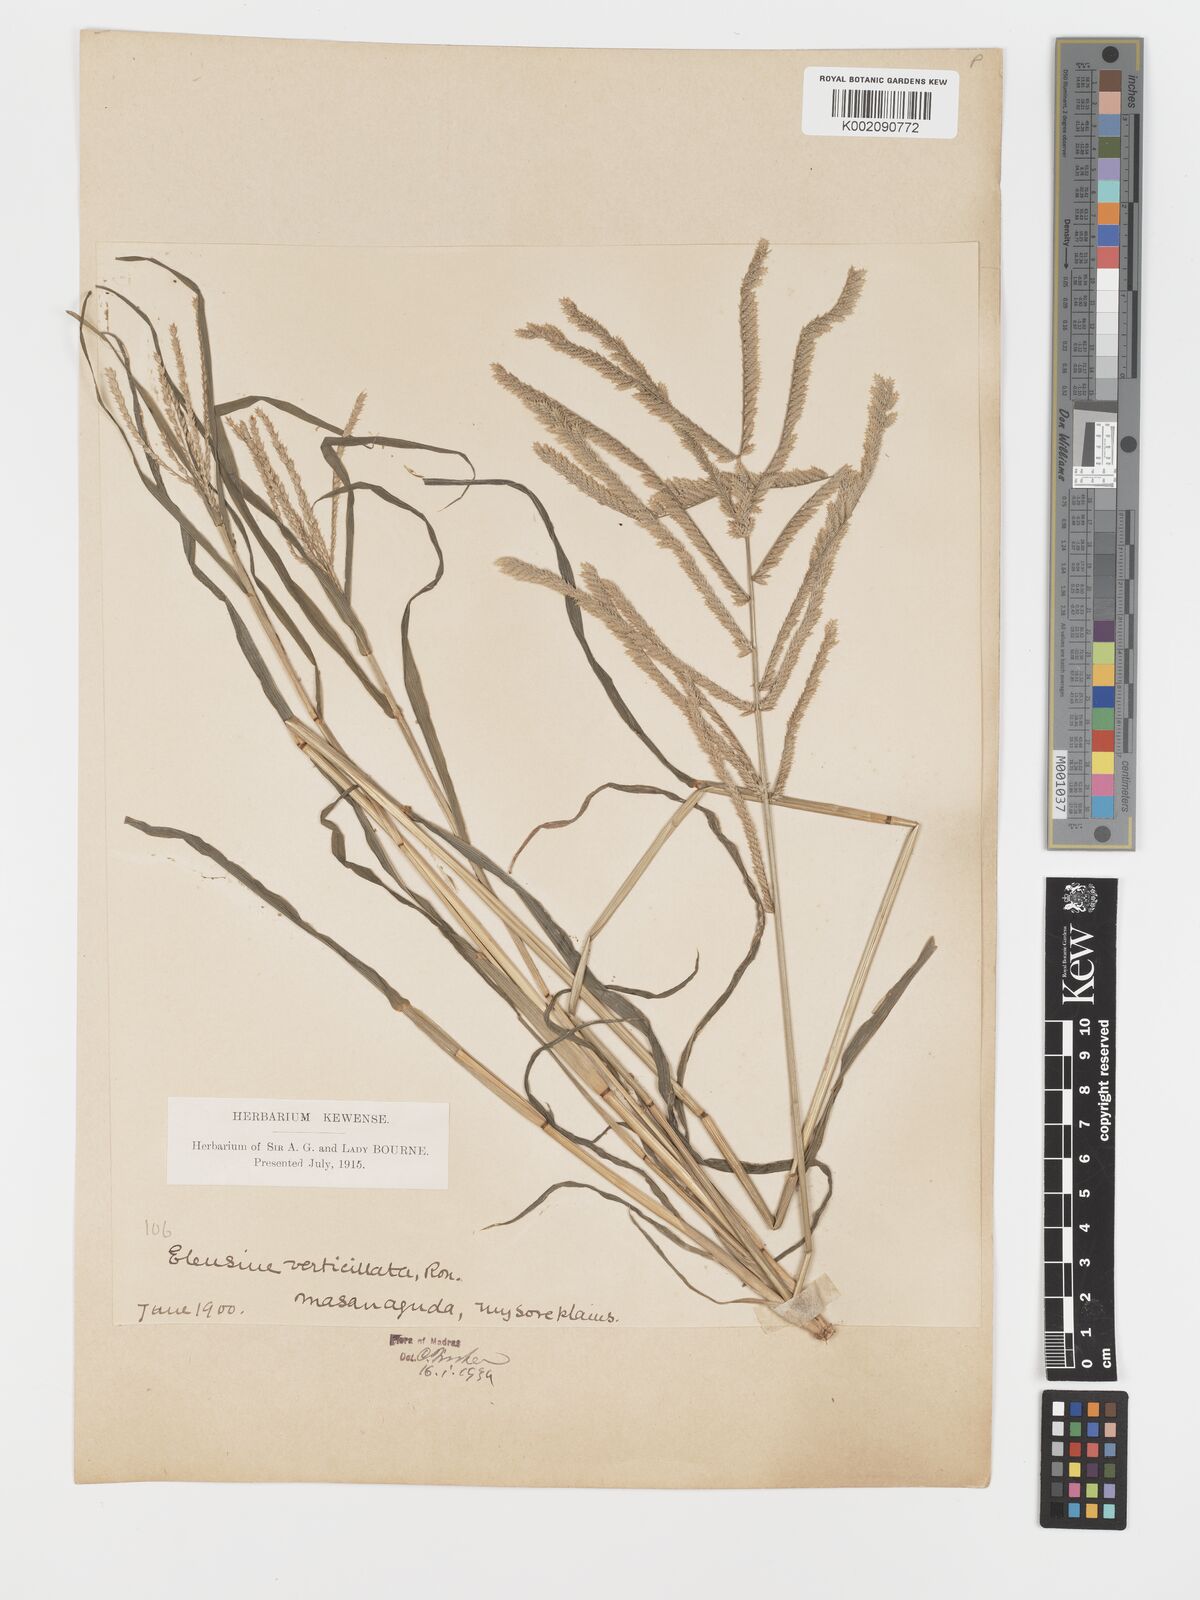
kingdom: Plantae
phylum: Tracheophyta
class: Liliopsida
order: Poales
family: Poaceae
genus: Acrachne
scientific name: Acrachne racemosa
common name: Goosegrass
